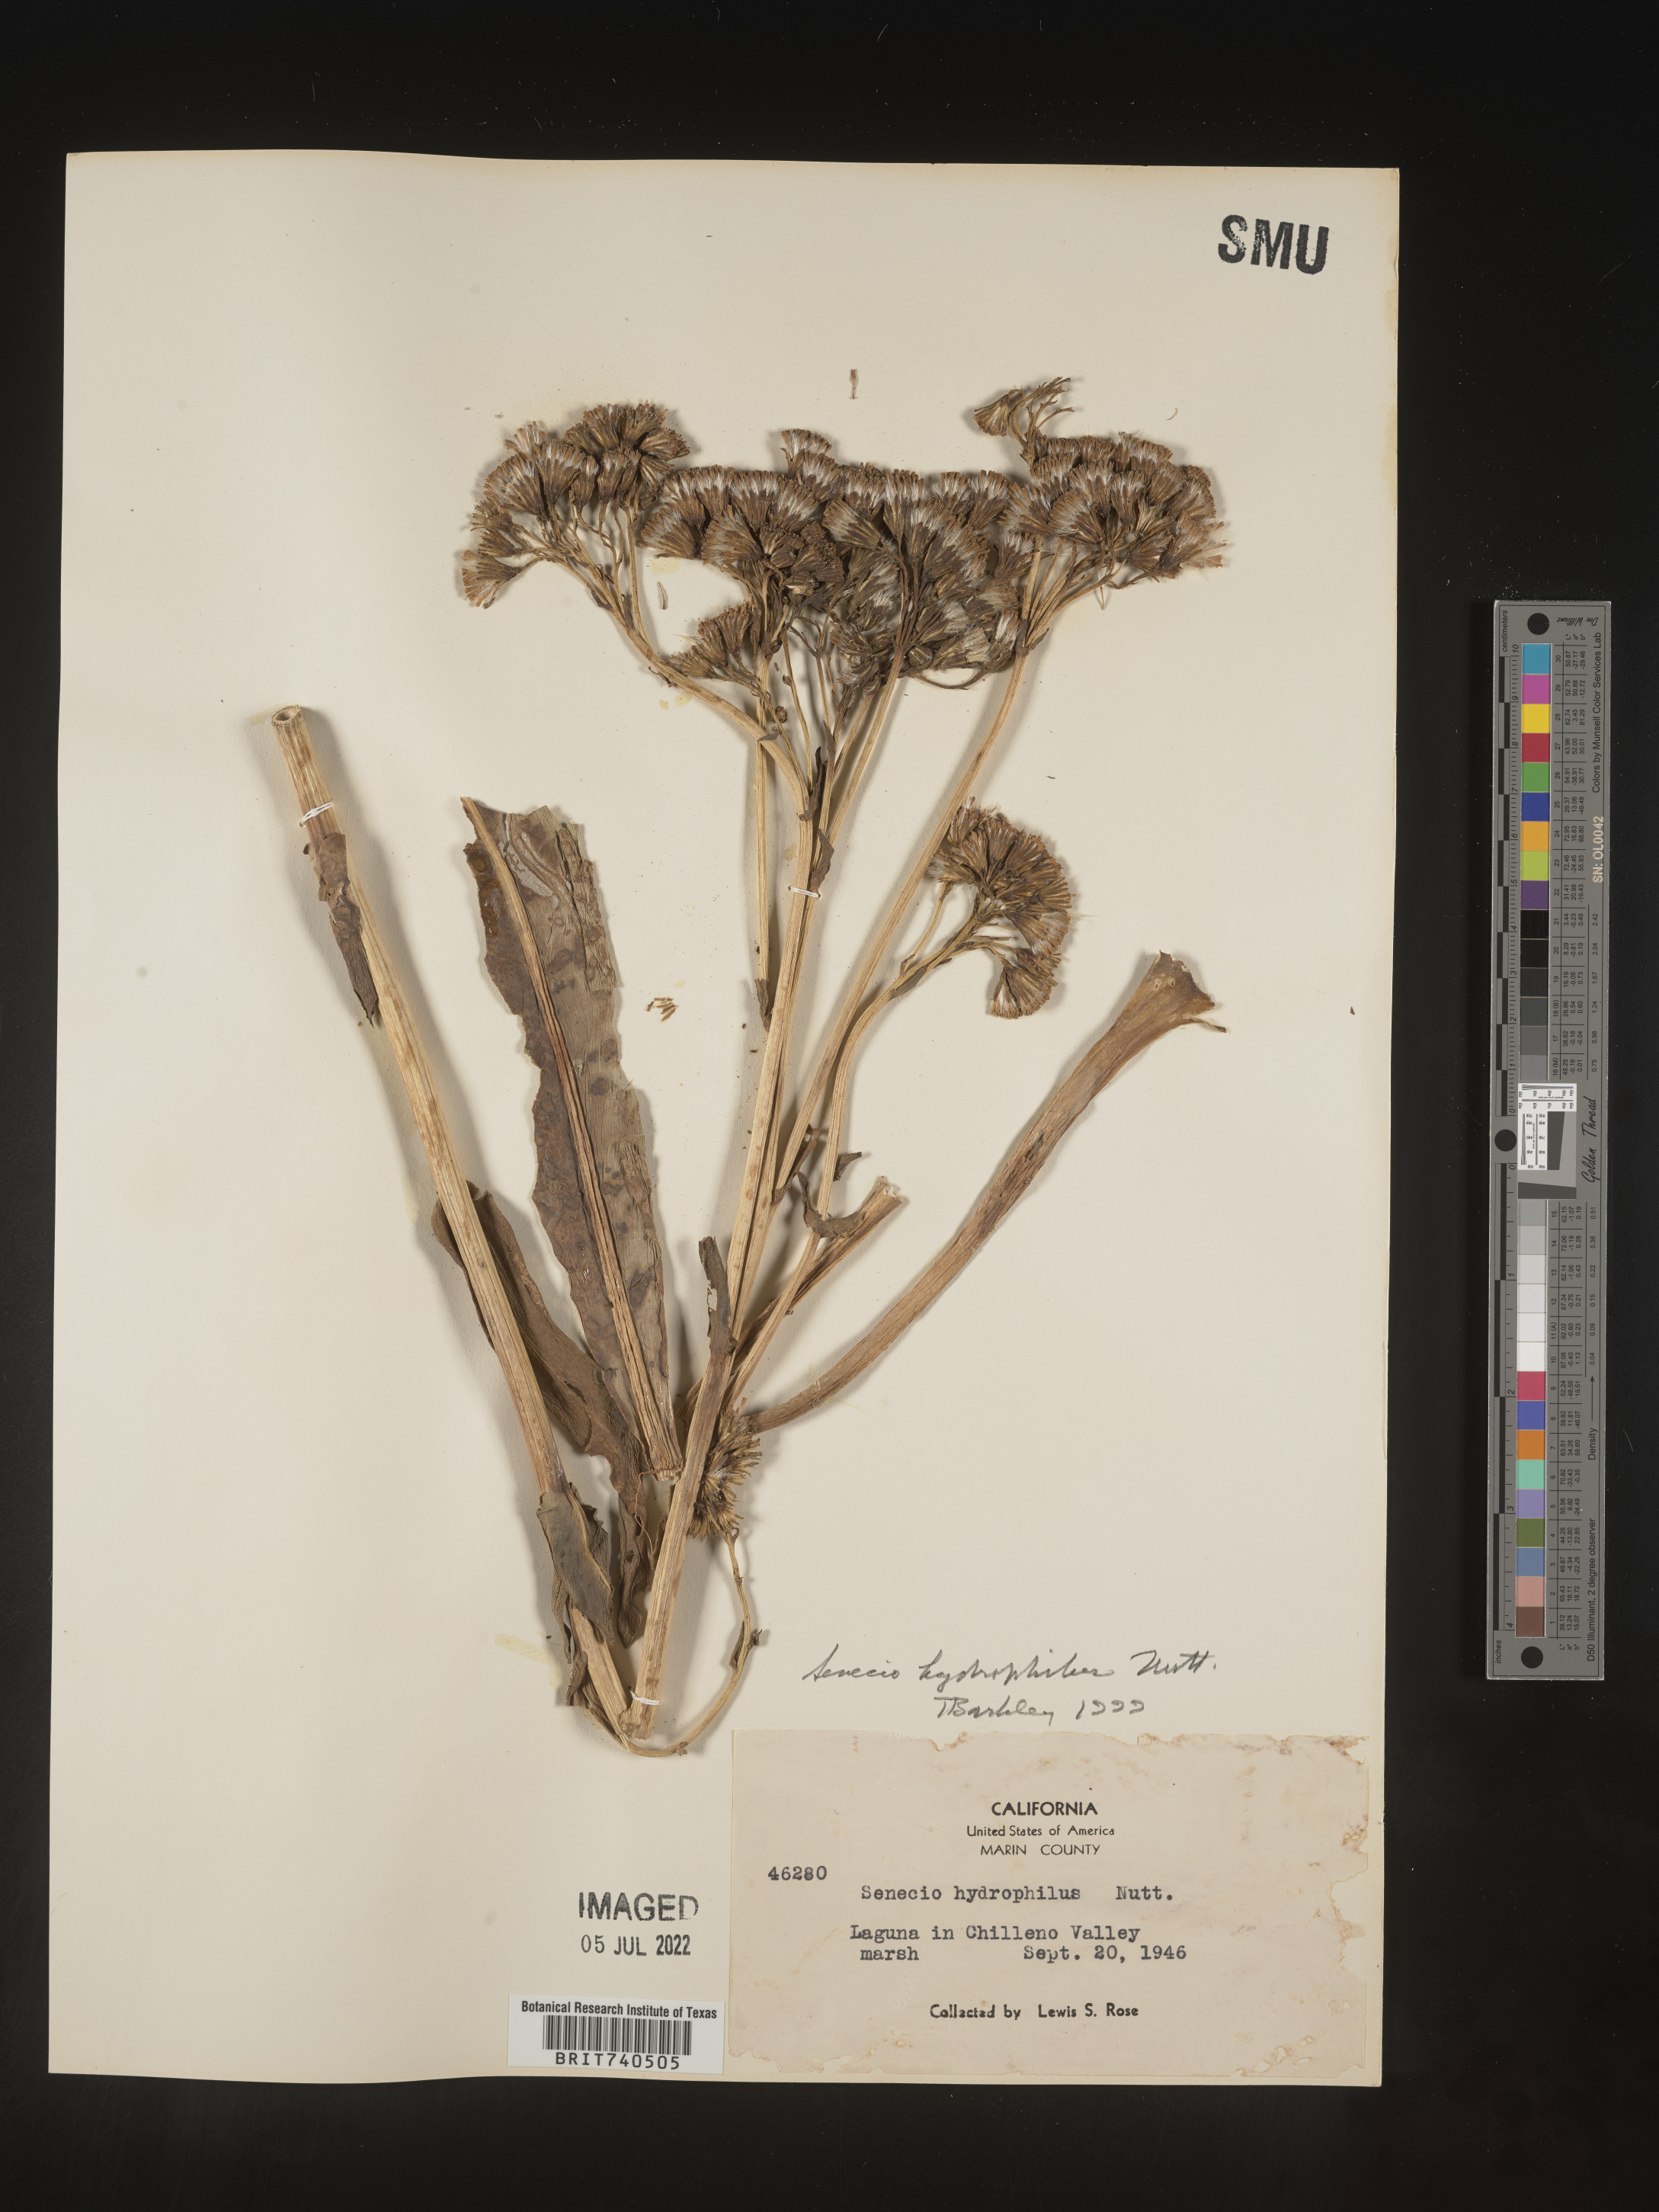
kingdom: Plantae
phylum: Tracheophyta
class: Magnoliopsida
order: Asterales
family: Asteraceae
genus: Senecio
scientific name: Senecio hydrophilus
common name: Water ragwort
